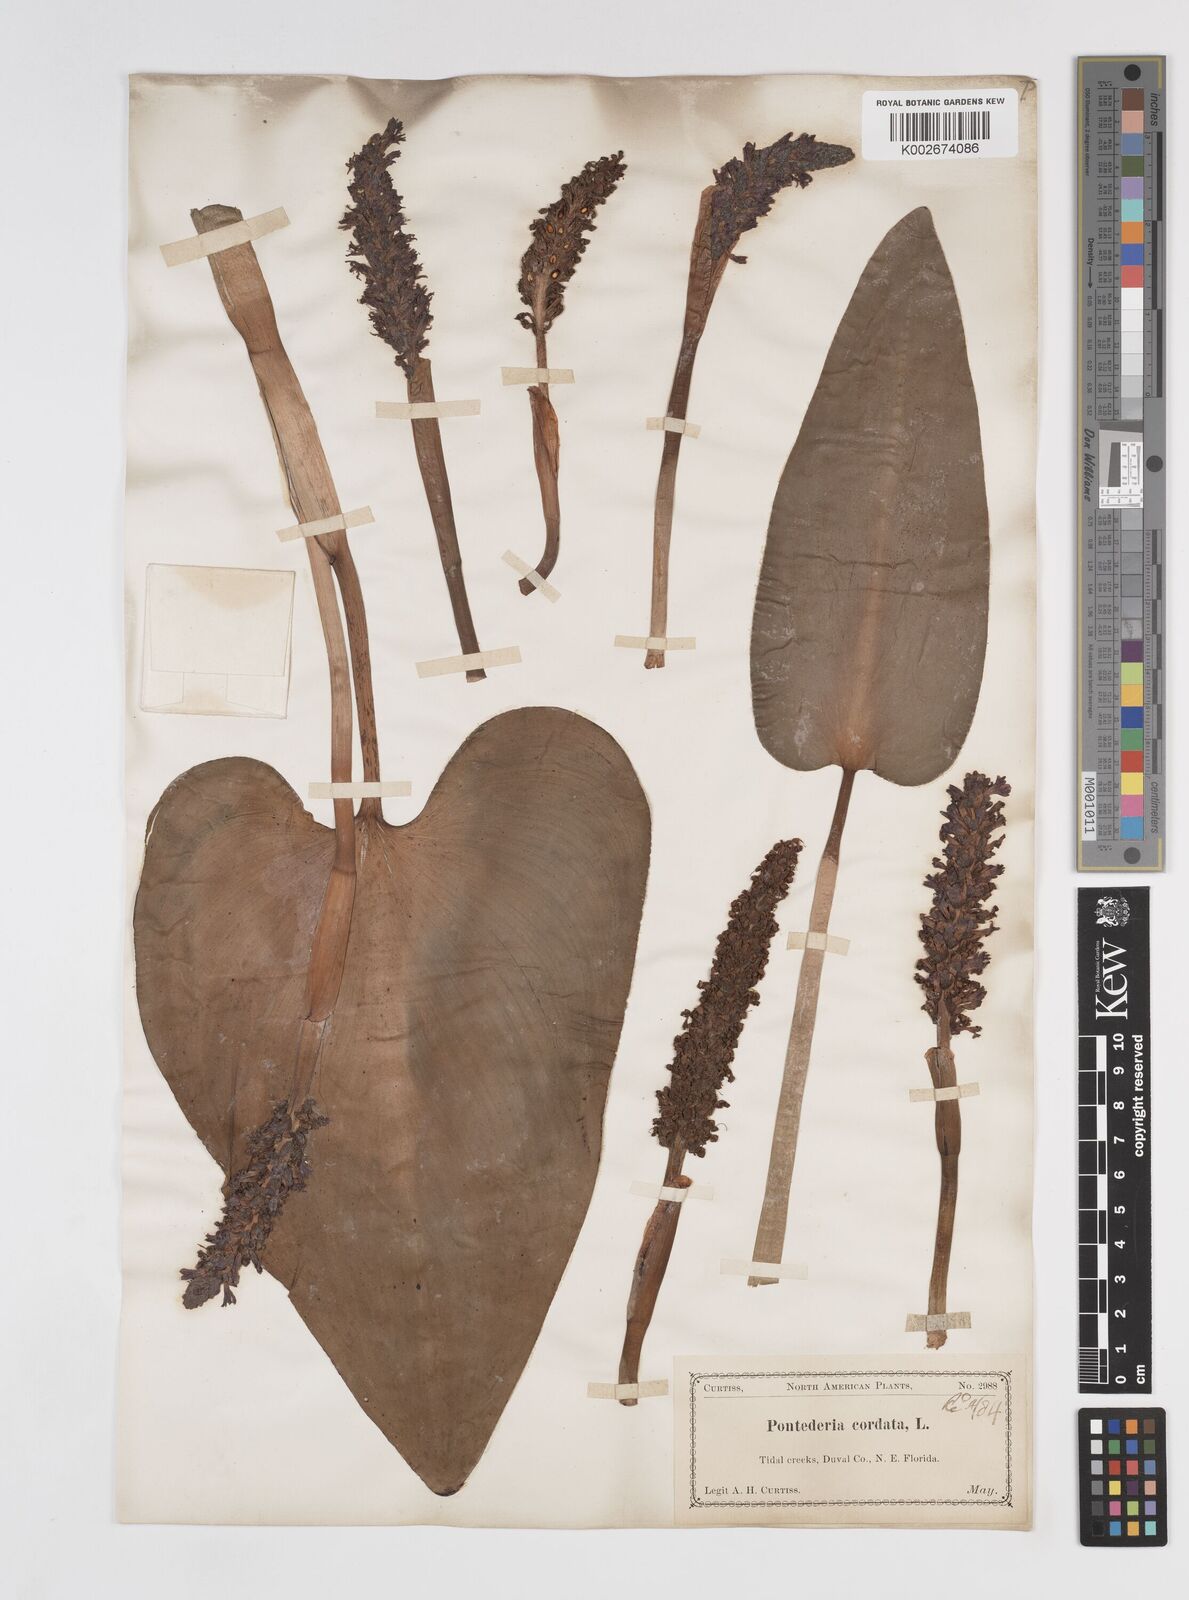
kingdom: Plantae
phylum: Tracheophyta
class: Liliopsida
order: Commelinales
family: Pontederiaceae
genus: Pontederia
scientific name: Pontederia cordata
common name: Pickerelweed
